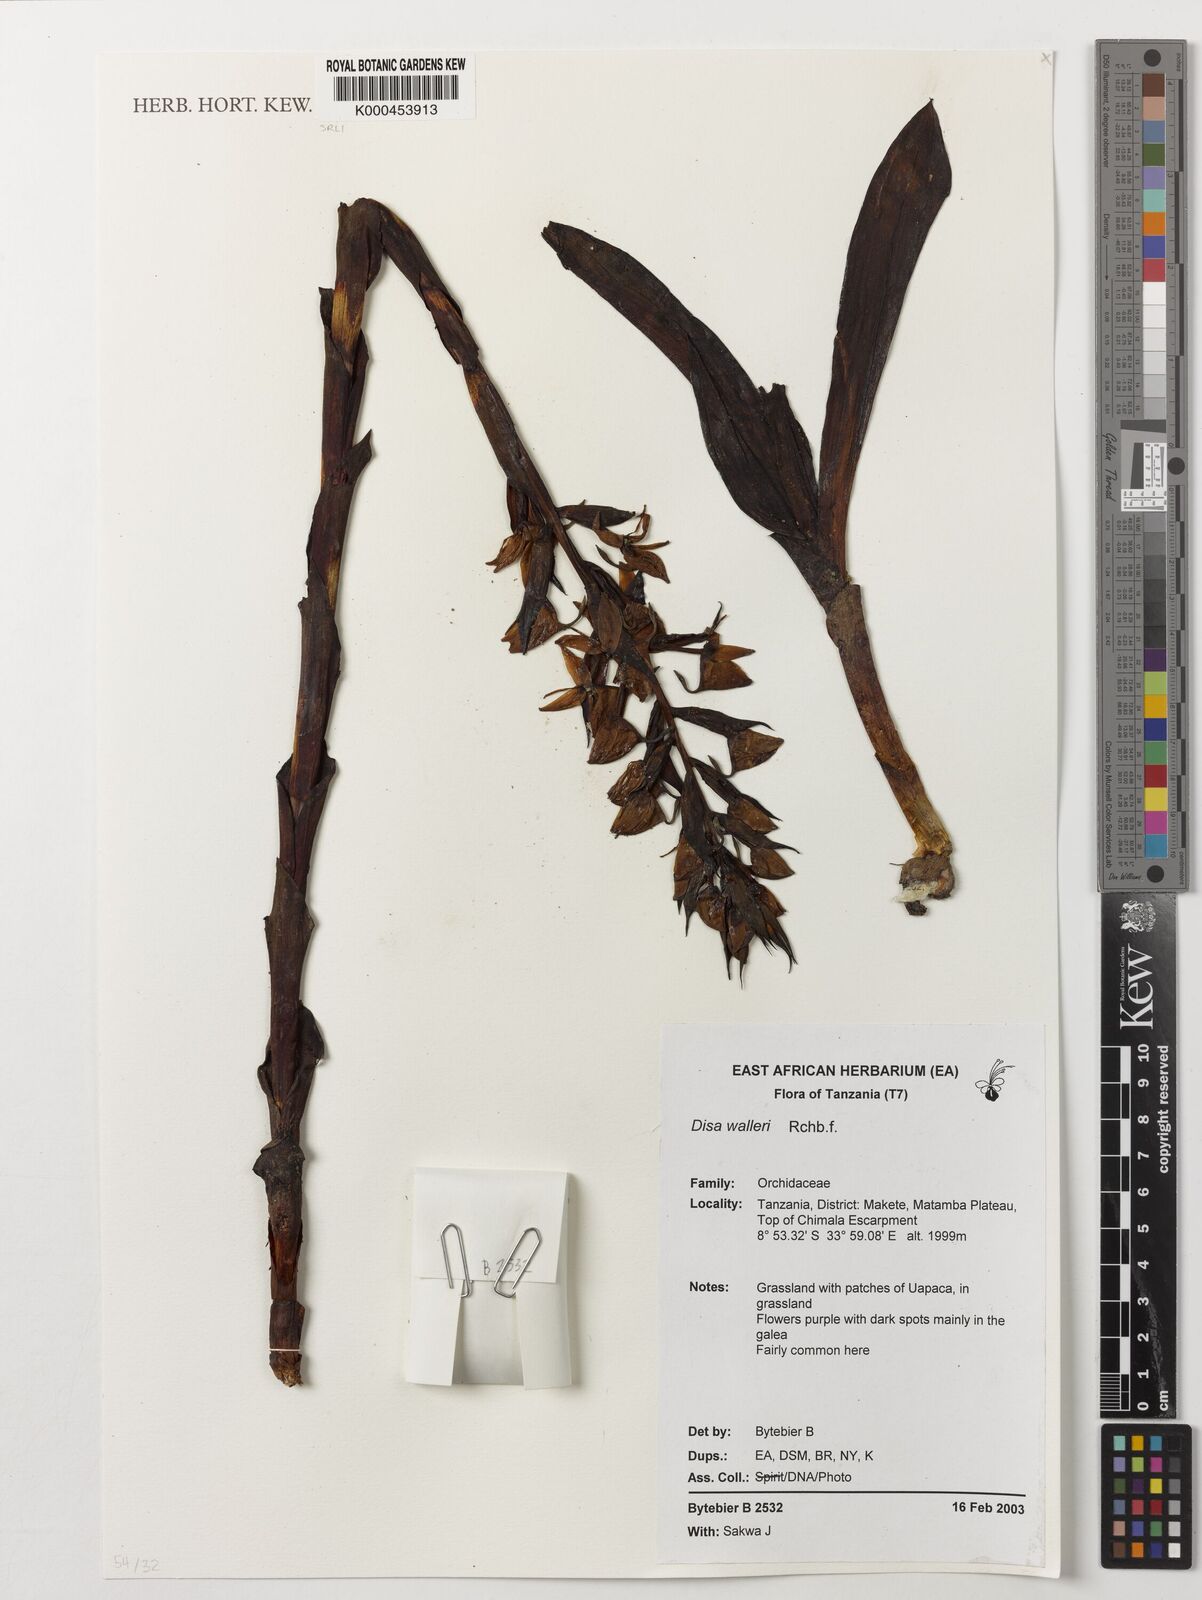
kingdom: Plantae
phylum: Tracheophyta
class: Liliopsida
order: Asparagales
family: Orchidaceae
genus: Disa
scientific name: Disa walleri
